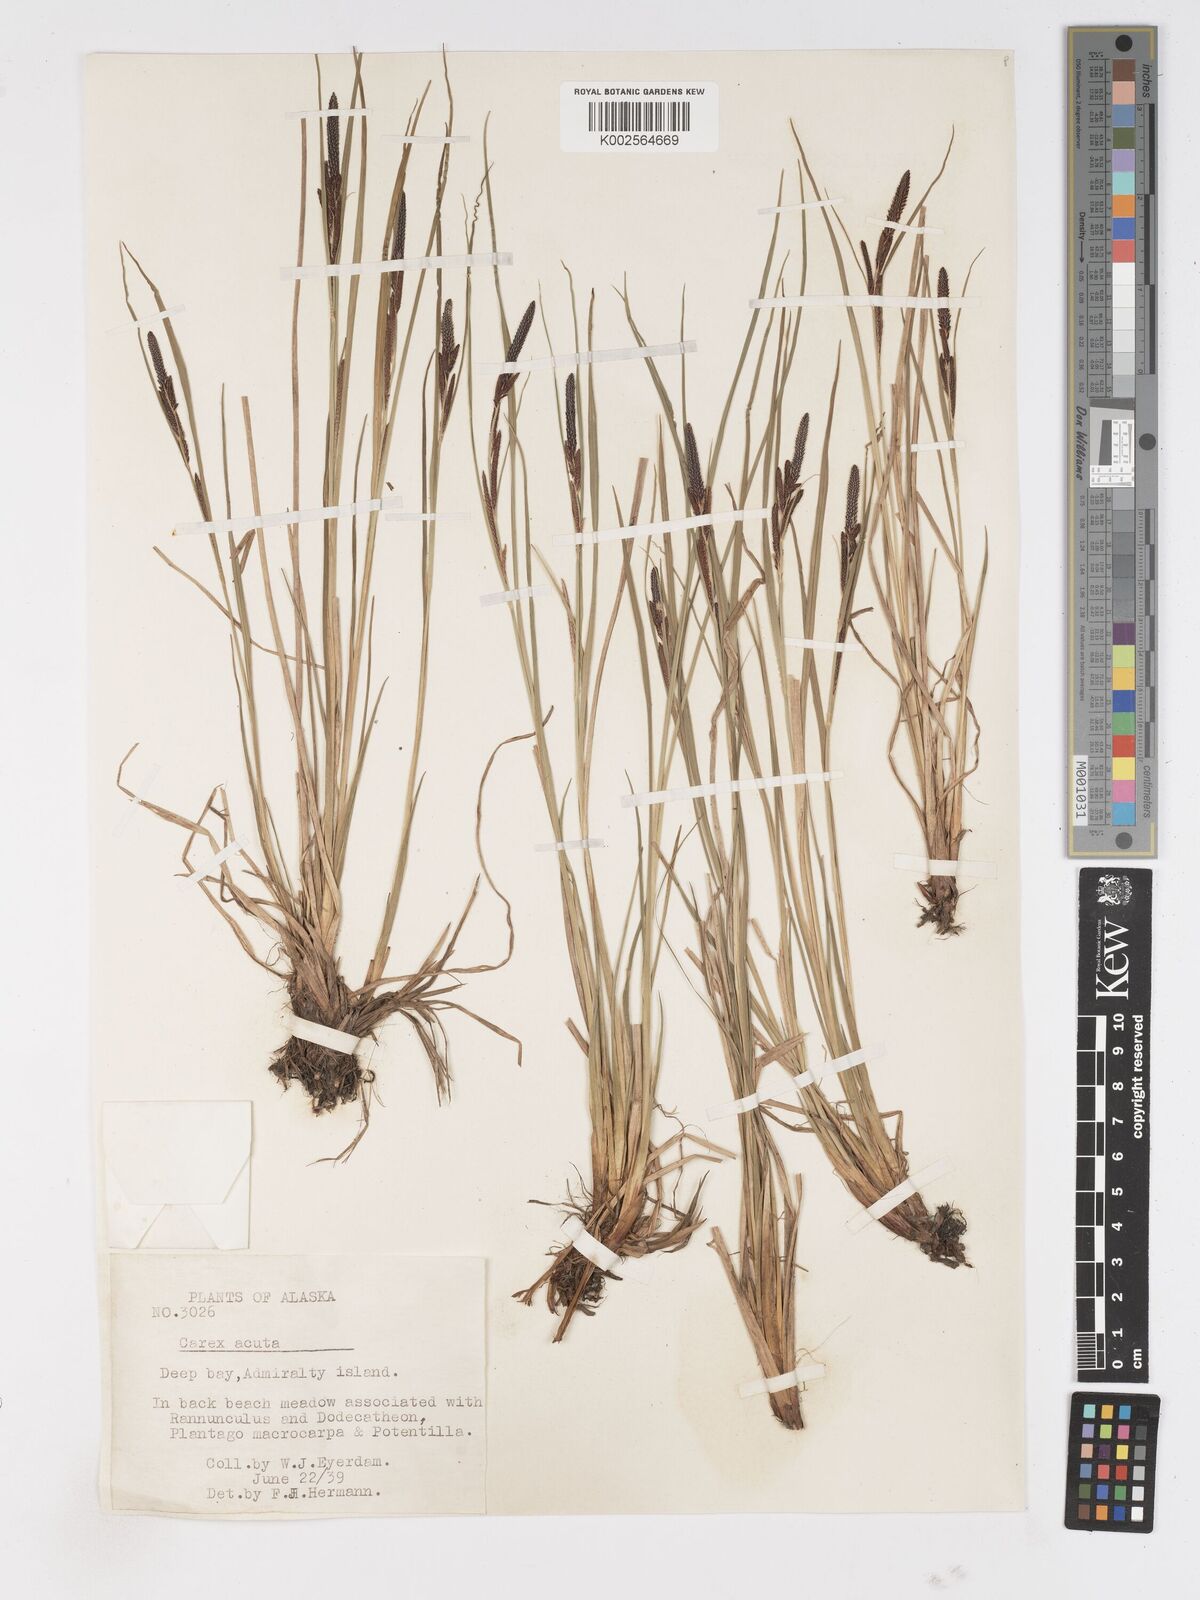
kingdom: Plantae
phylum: Tracheophyta
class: Liliopsida
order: Poales
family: Cyperaceae
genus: Carex
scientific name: Carex acuta
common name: Slender tufted-sedge
